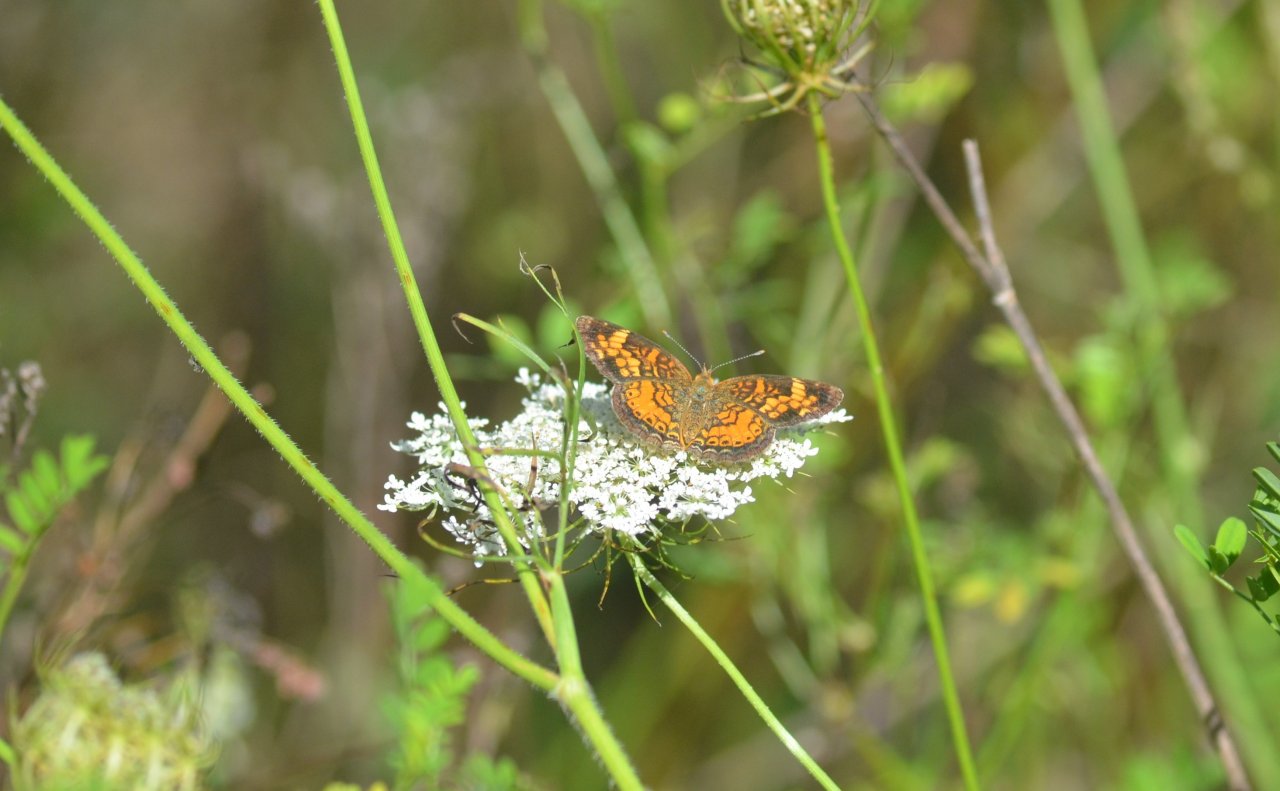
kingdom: Animalia
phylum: Arthropoda
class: Insecta
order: Lepidoptera
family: Nymphalidae
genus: Phyciodes
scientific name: Phyciodes tharos
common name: Northern Crescent
